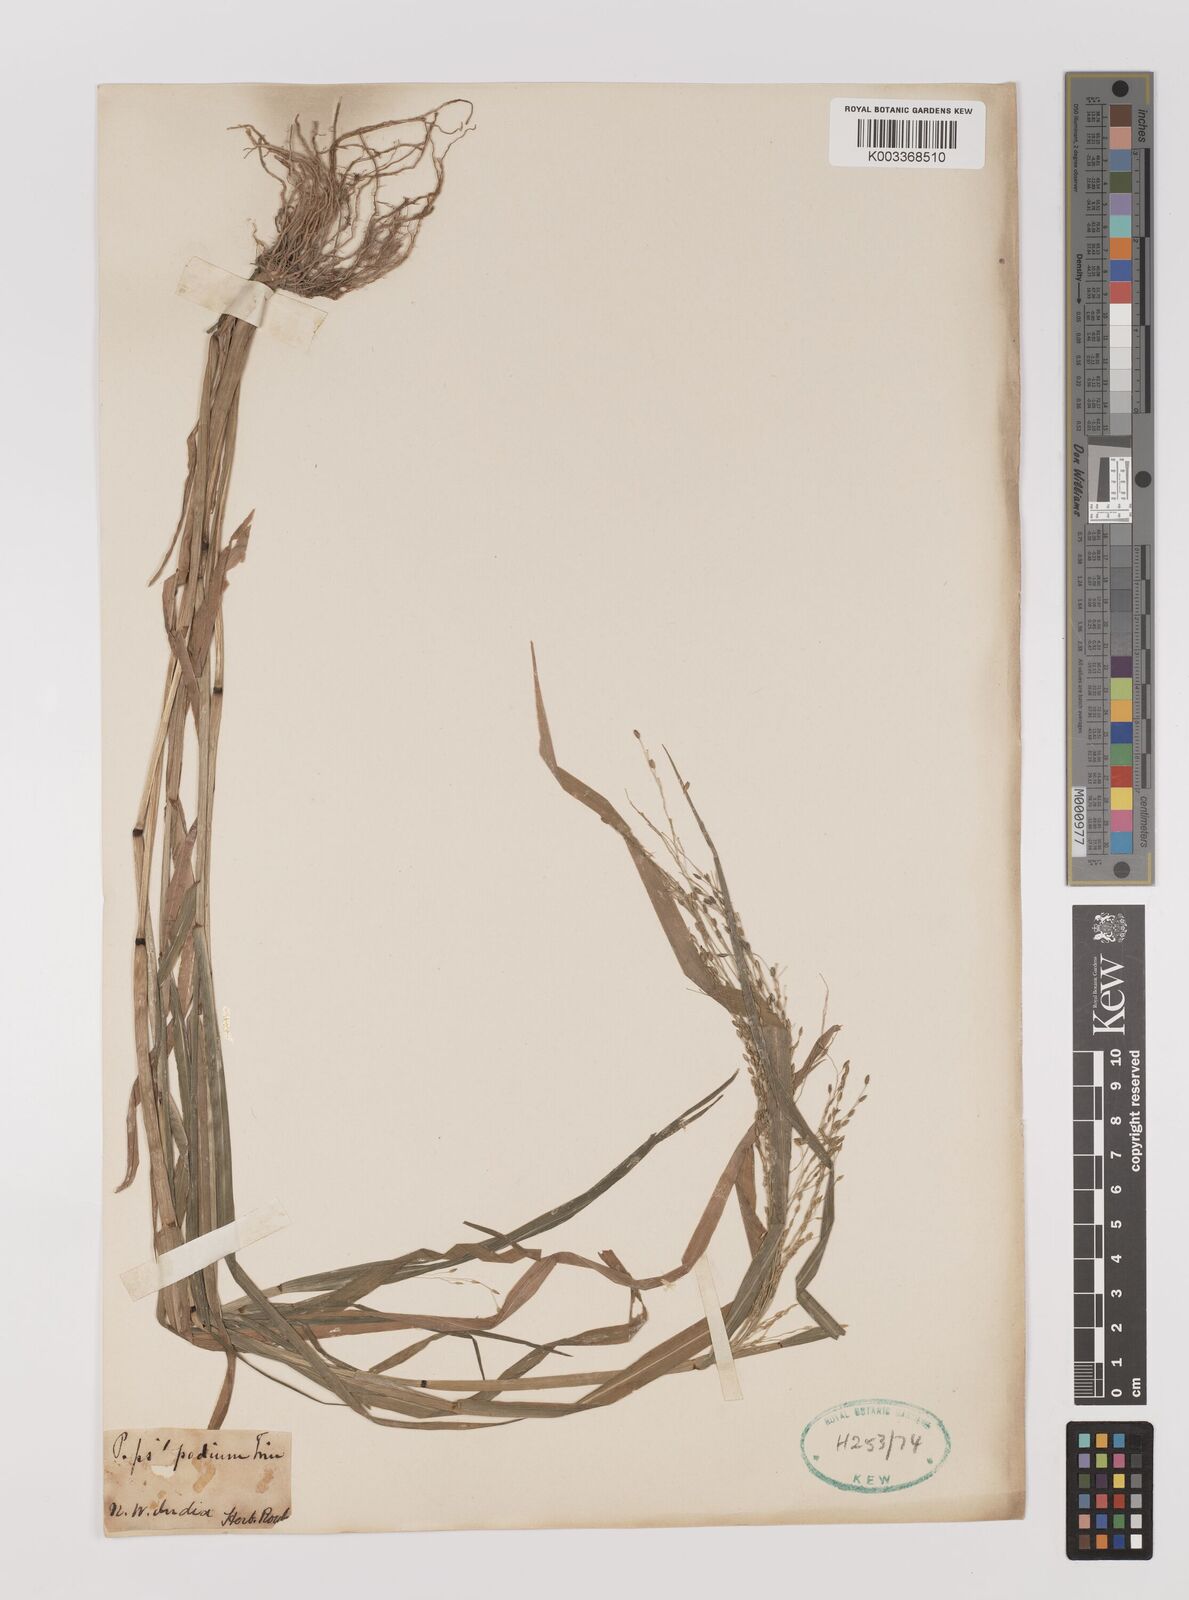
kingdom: Plantae
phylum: Tracheophyta
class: Liliopsida
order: Poales
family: Poaceae
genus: Panicum
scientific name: Panicum sumatrense
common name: Little millet
